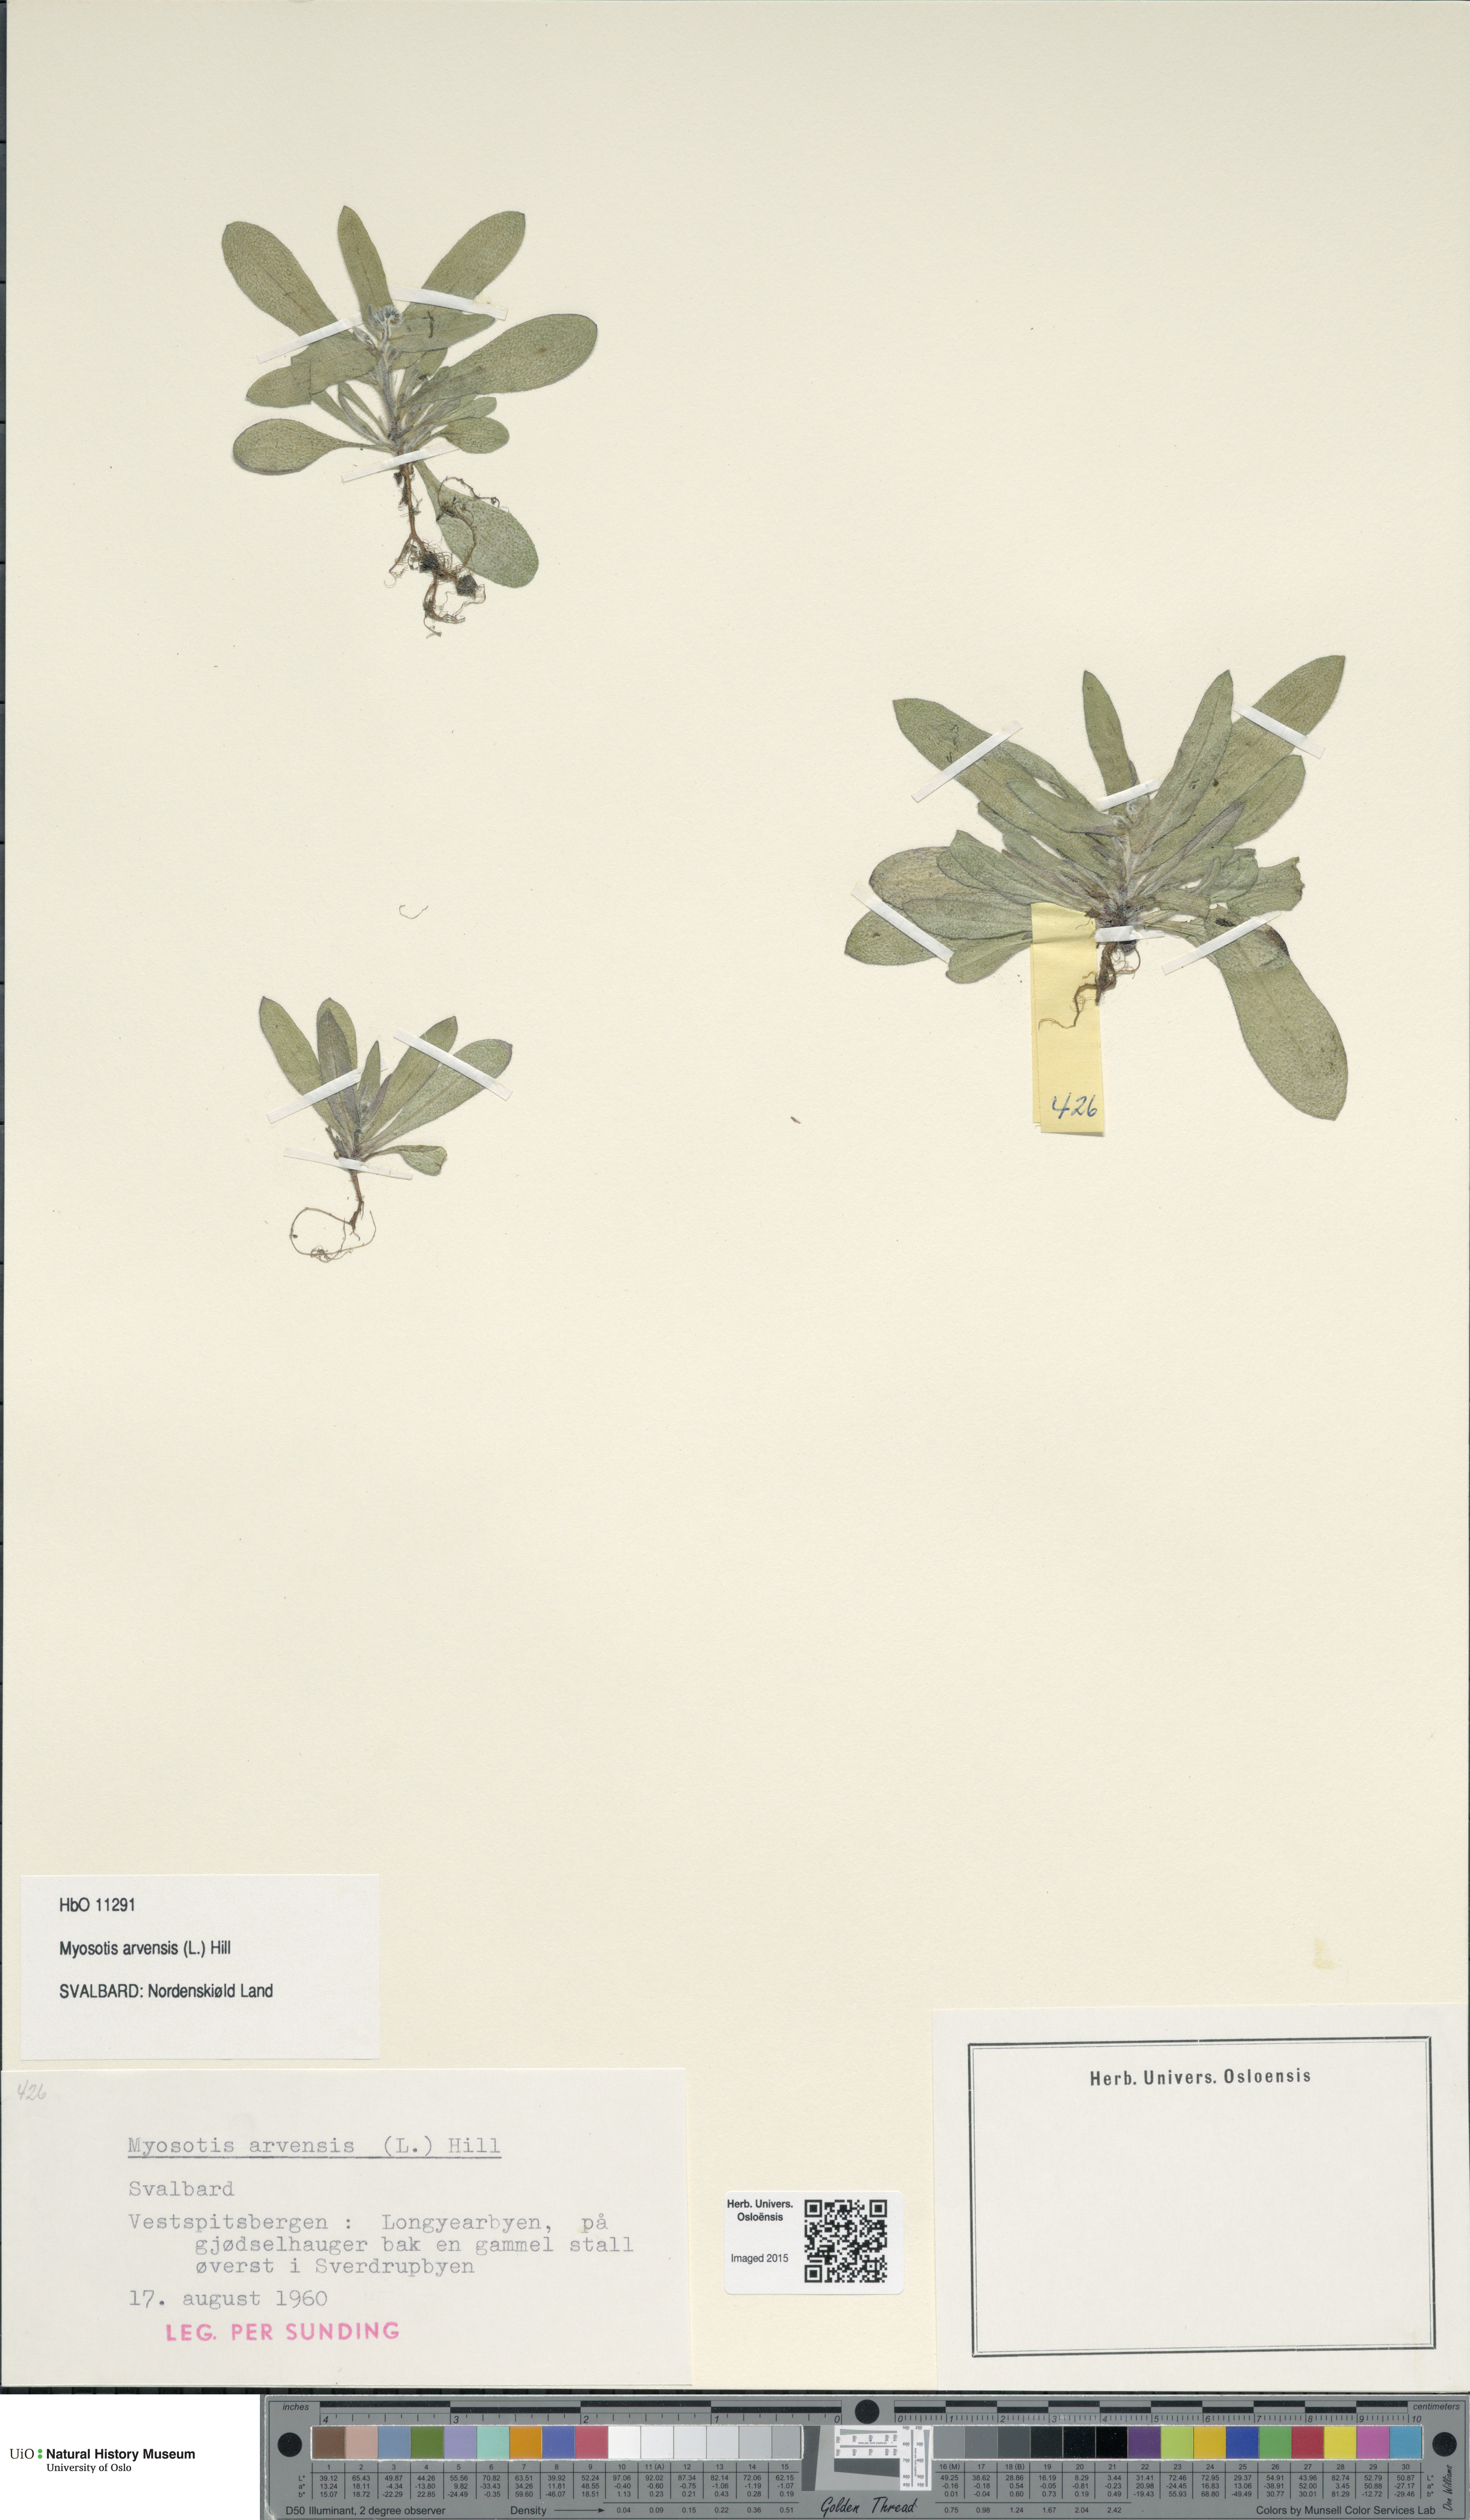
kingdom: Plantae
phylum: Tracheophyta
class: Magnoliopsida
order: Boraginales
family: Boraginaceae
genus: Myosotis
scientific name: Myosotis arvensis
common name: Field forget-me-not
